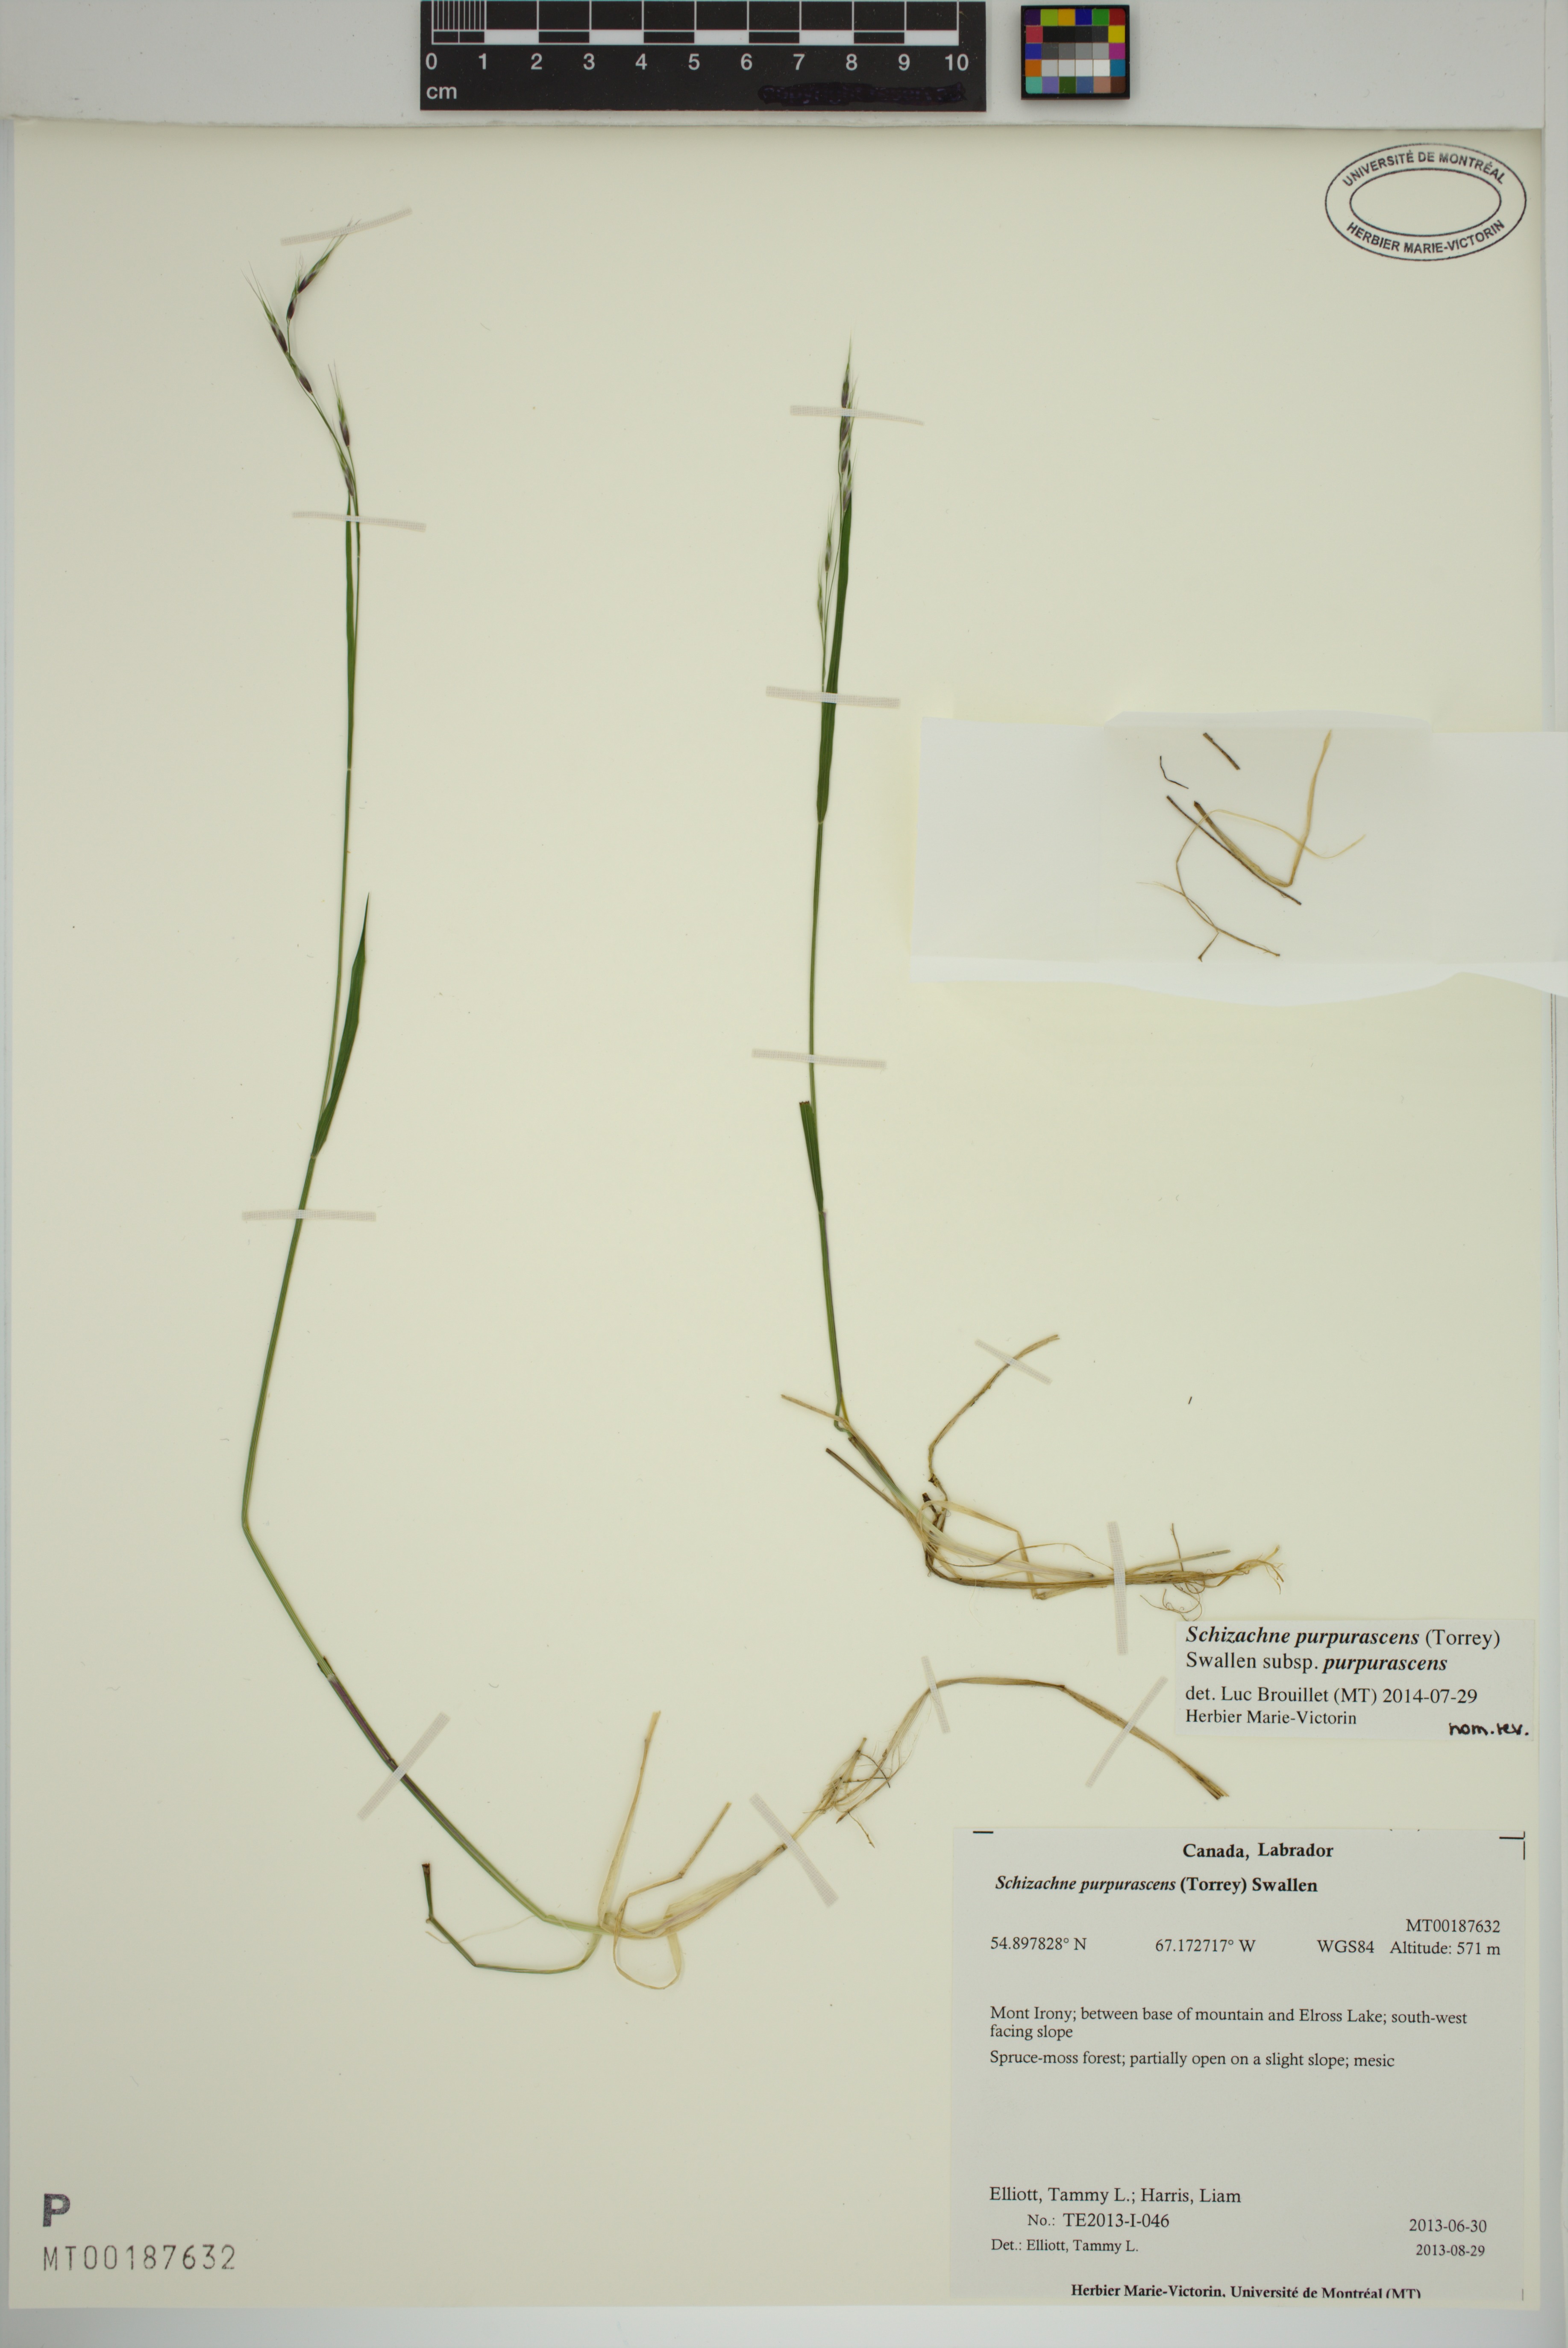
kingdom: Plantae
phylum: Tracheophyta
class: Liliopsida
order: Poales
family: Poaceae
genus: Schizachne
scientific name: Schizachne purpurascens
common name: False melic
